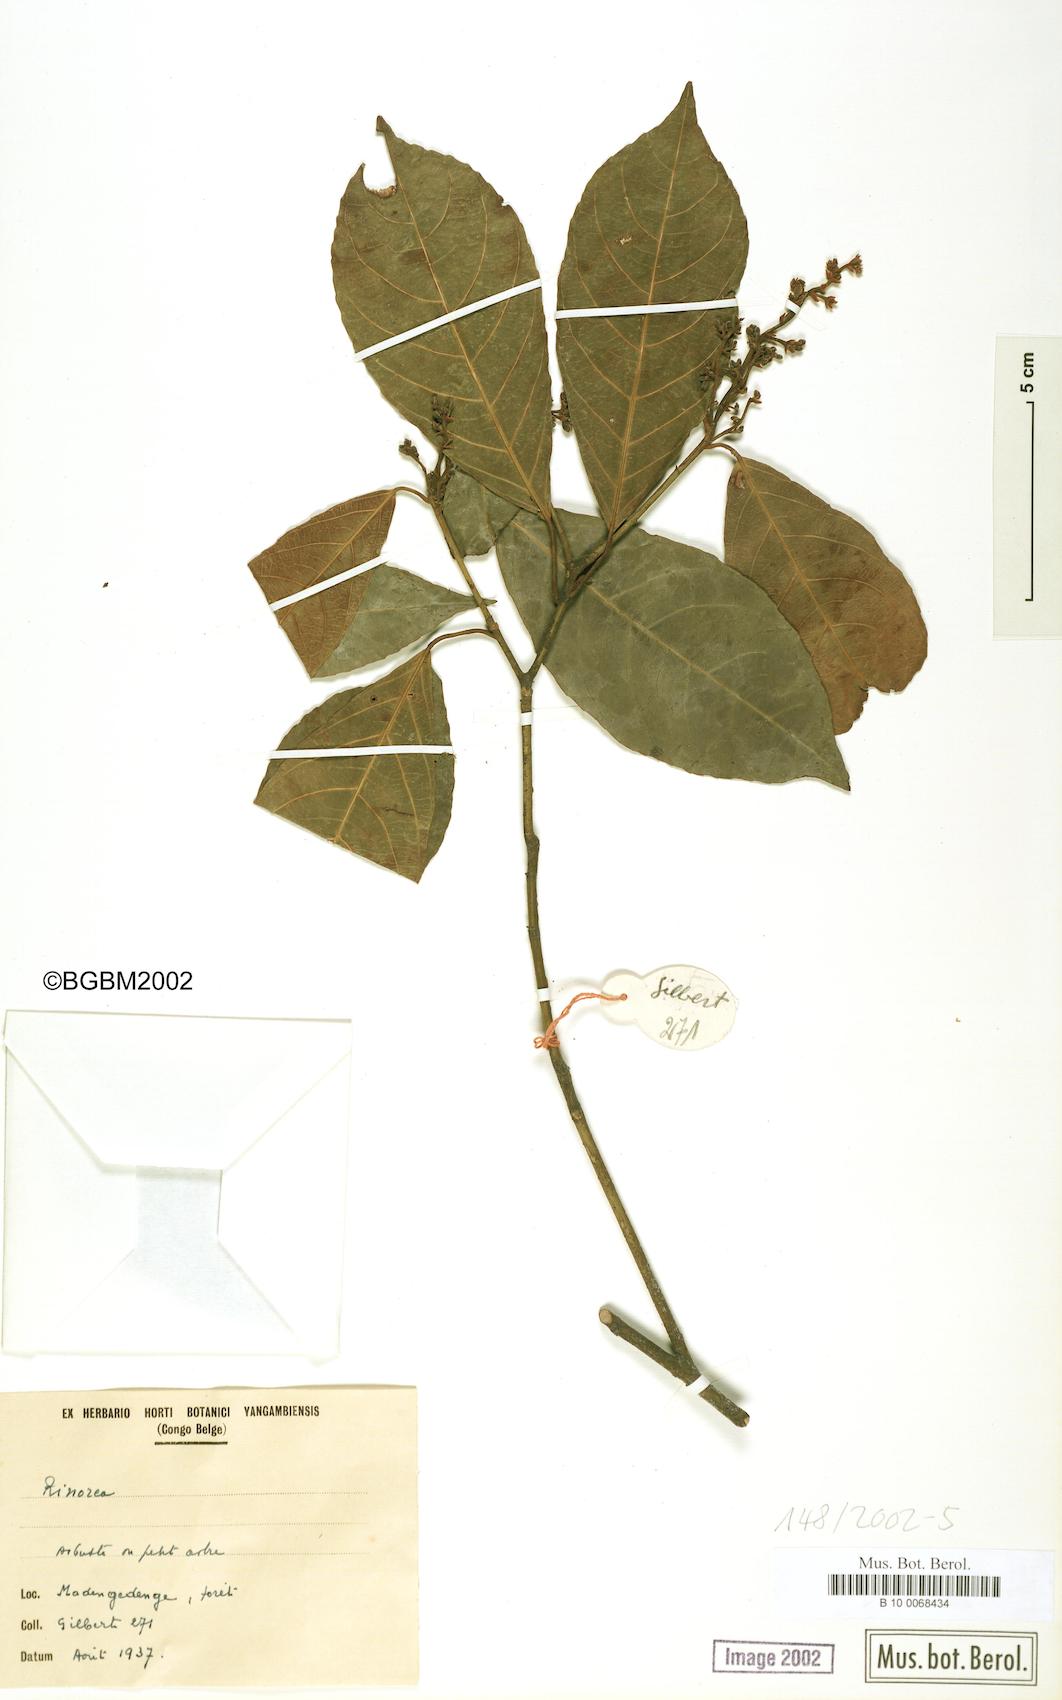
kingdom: Plantae
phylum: Tracheophyta
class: Magnoliopsida
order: Malpighiales
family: Violaceae
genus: Rinorea
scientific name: Rinorea
